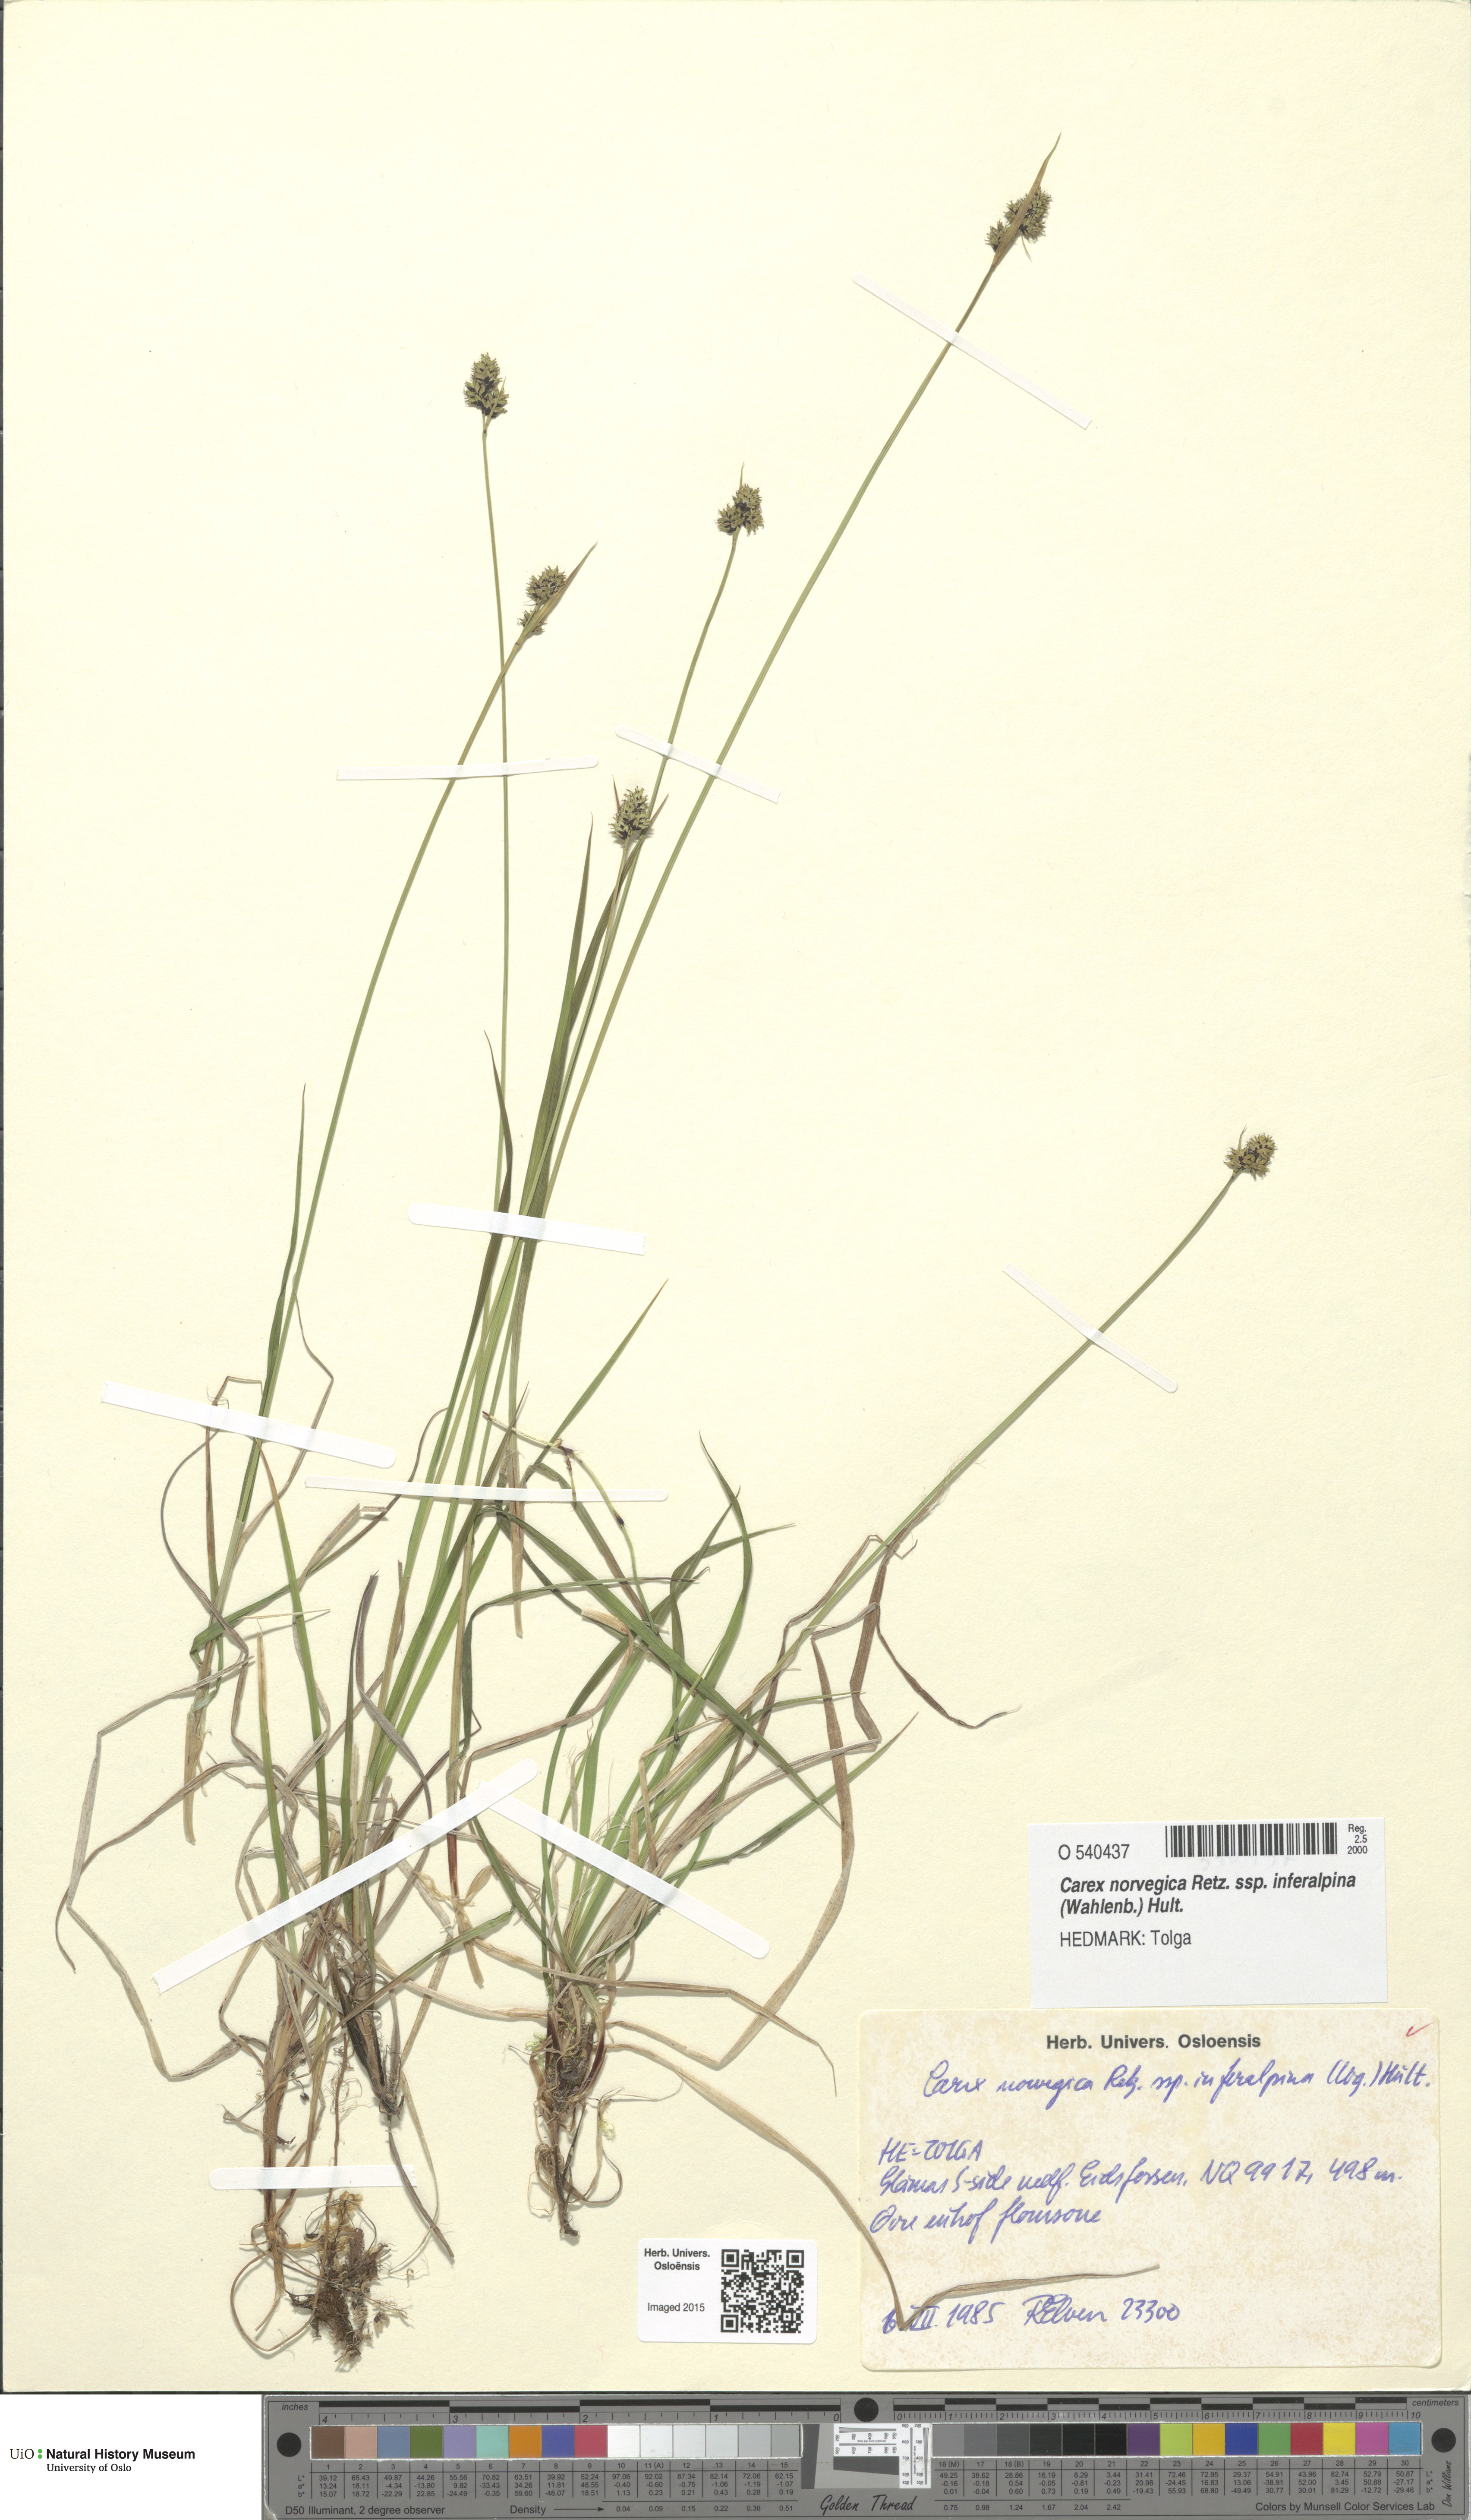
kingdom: Plantae
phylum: Tracheophyta
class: Liliopsida
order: Poales
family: Cyperaceae
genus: Carex
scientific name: Carex media
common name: Alpine sedge
